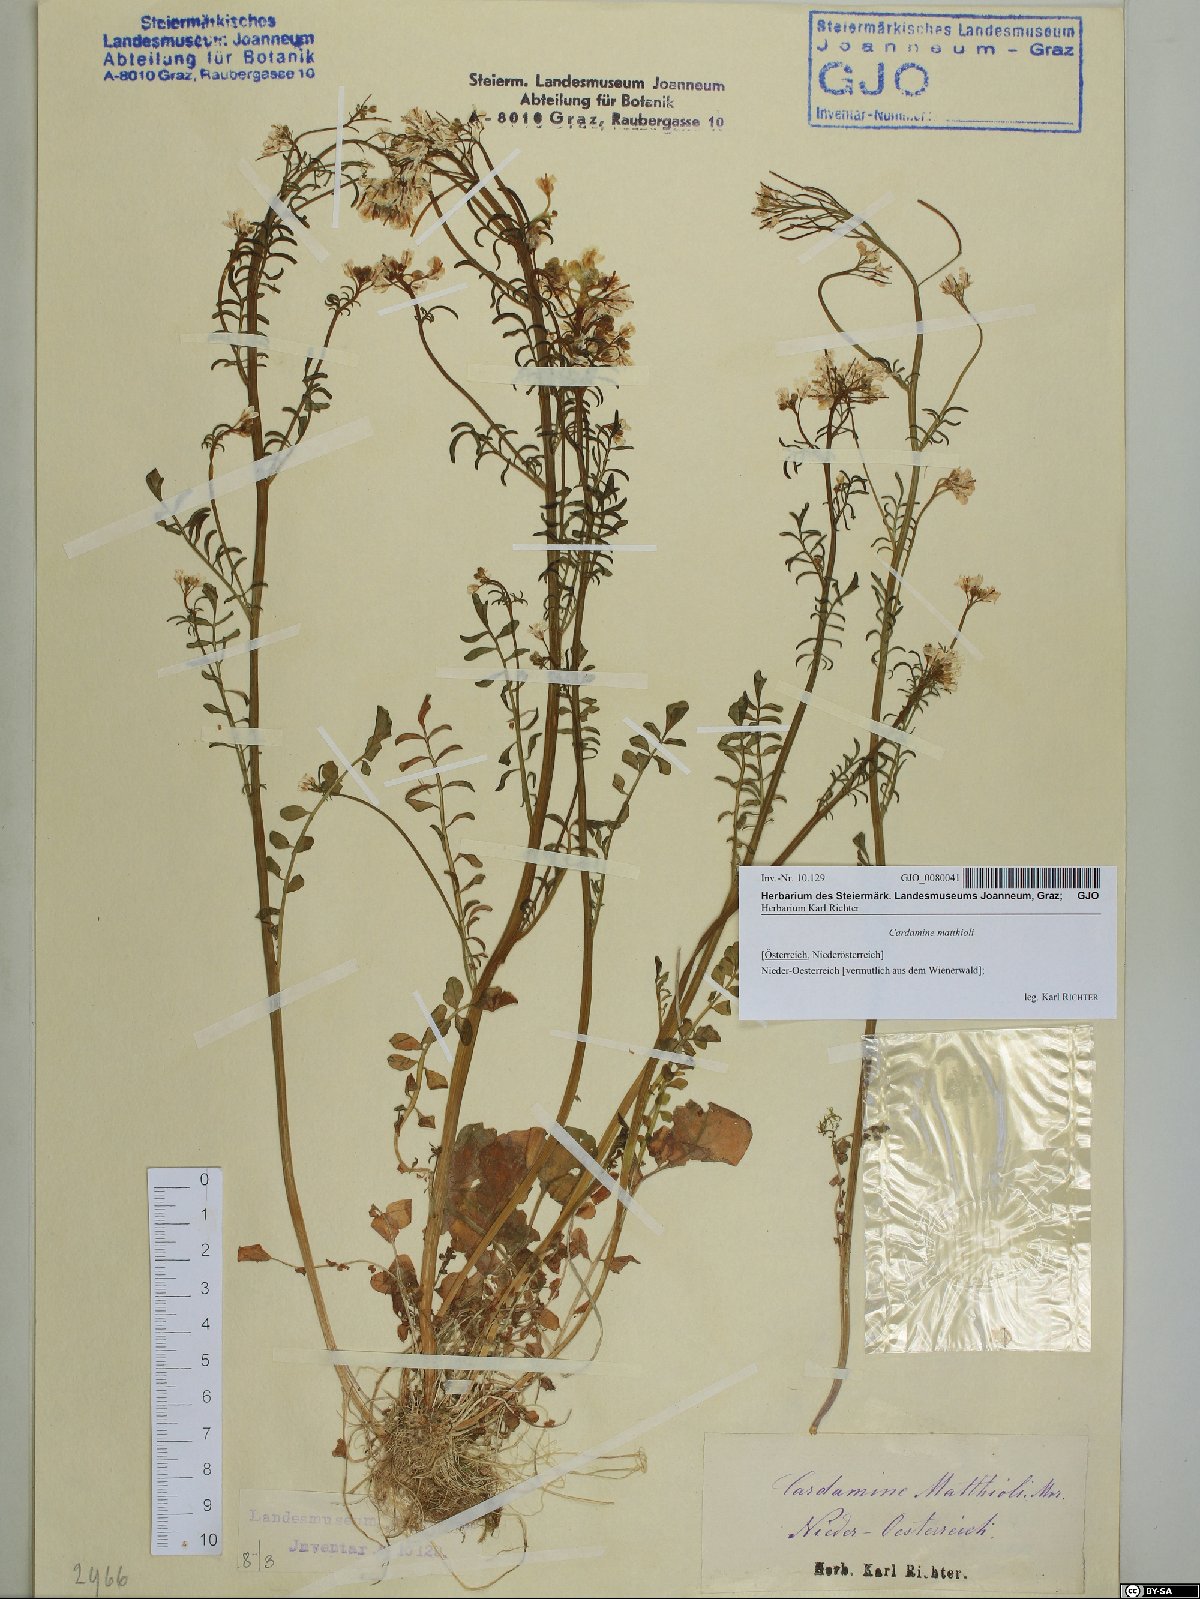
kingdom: Plantae
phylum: Tracheophyta
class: Magnoliopsida
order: Brassicales
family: Brassicaceae
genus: Cardamine
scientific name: Cardamine matthioli
